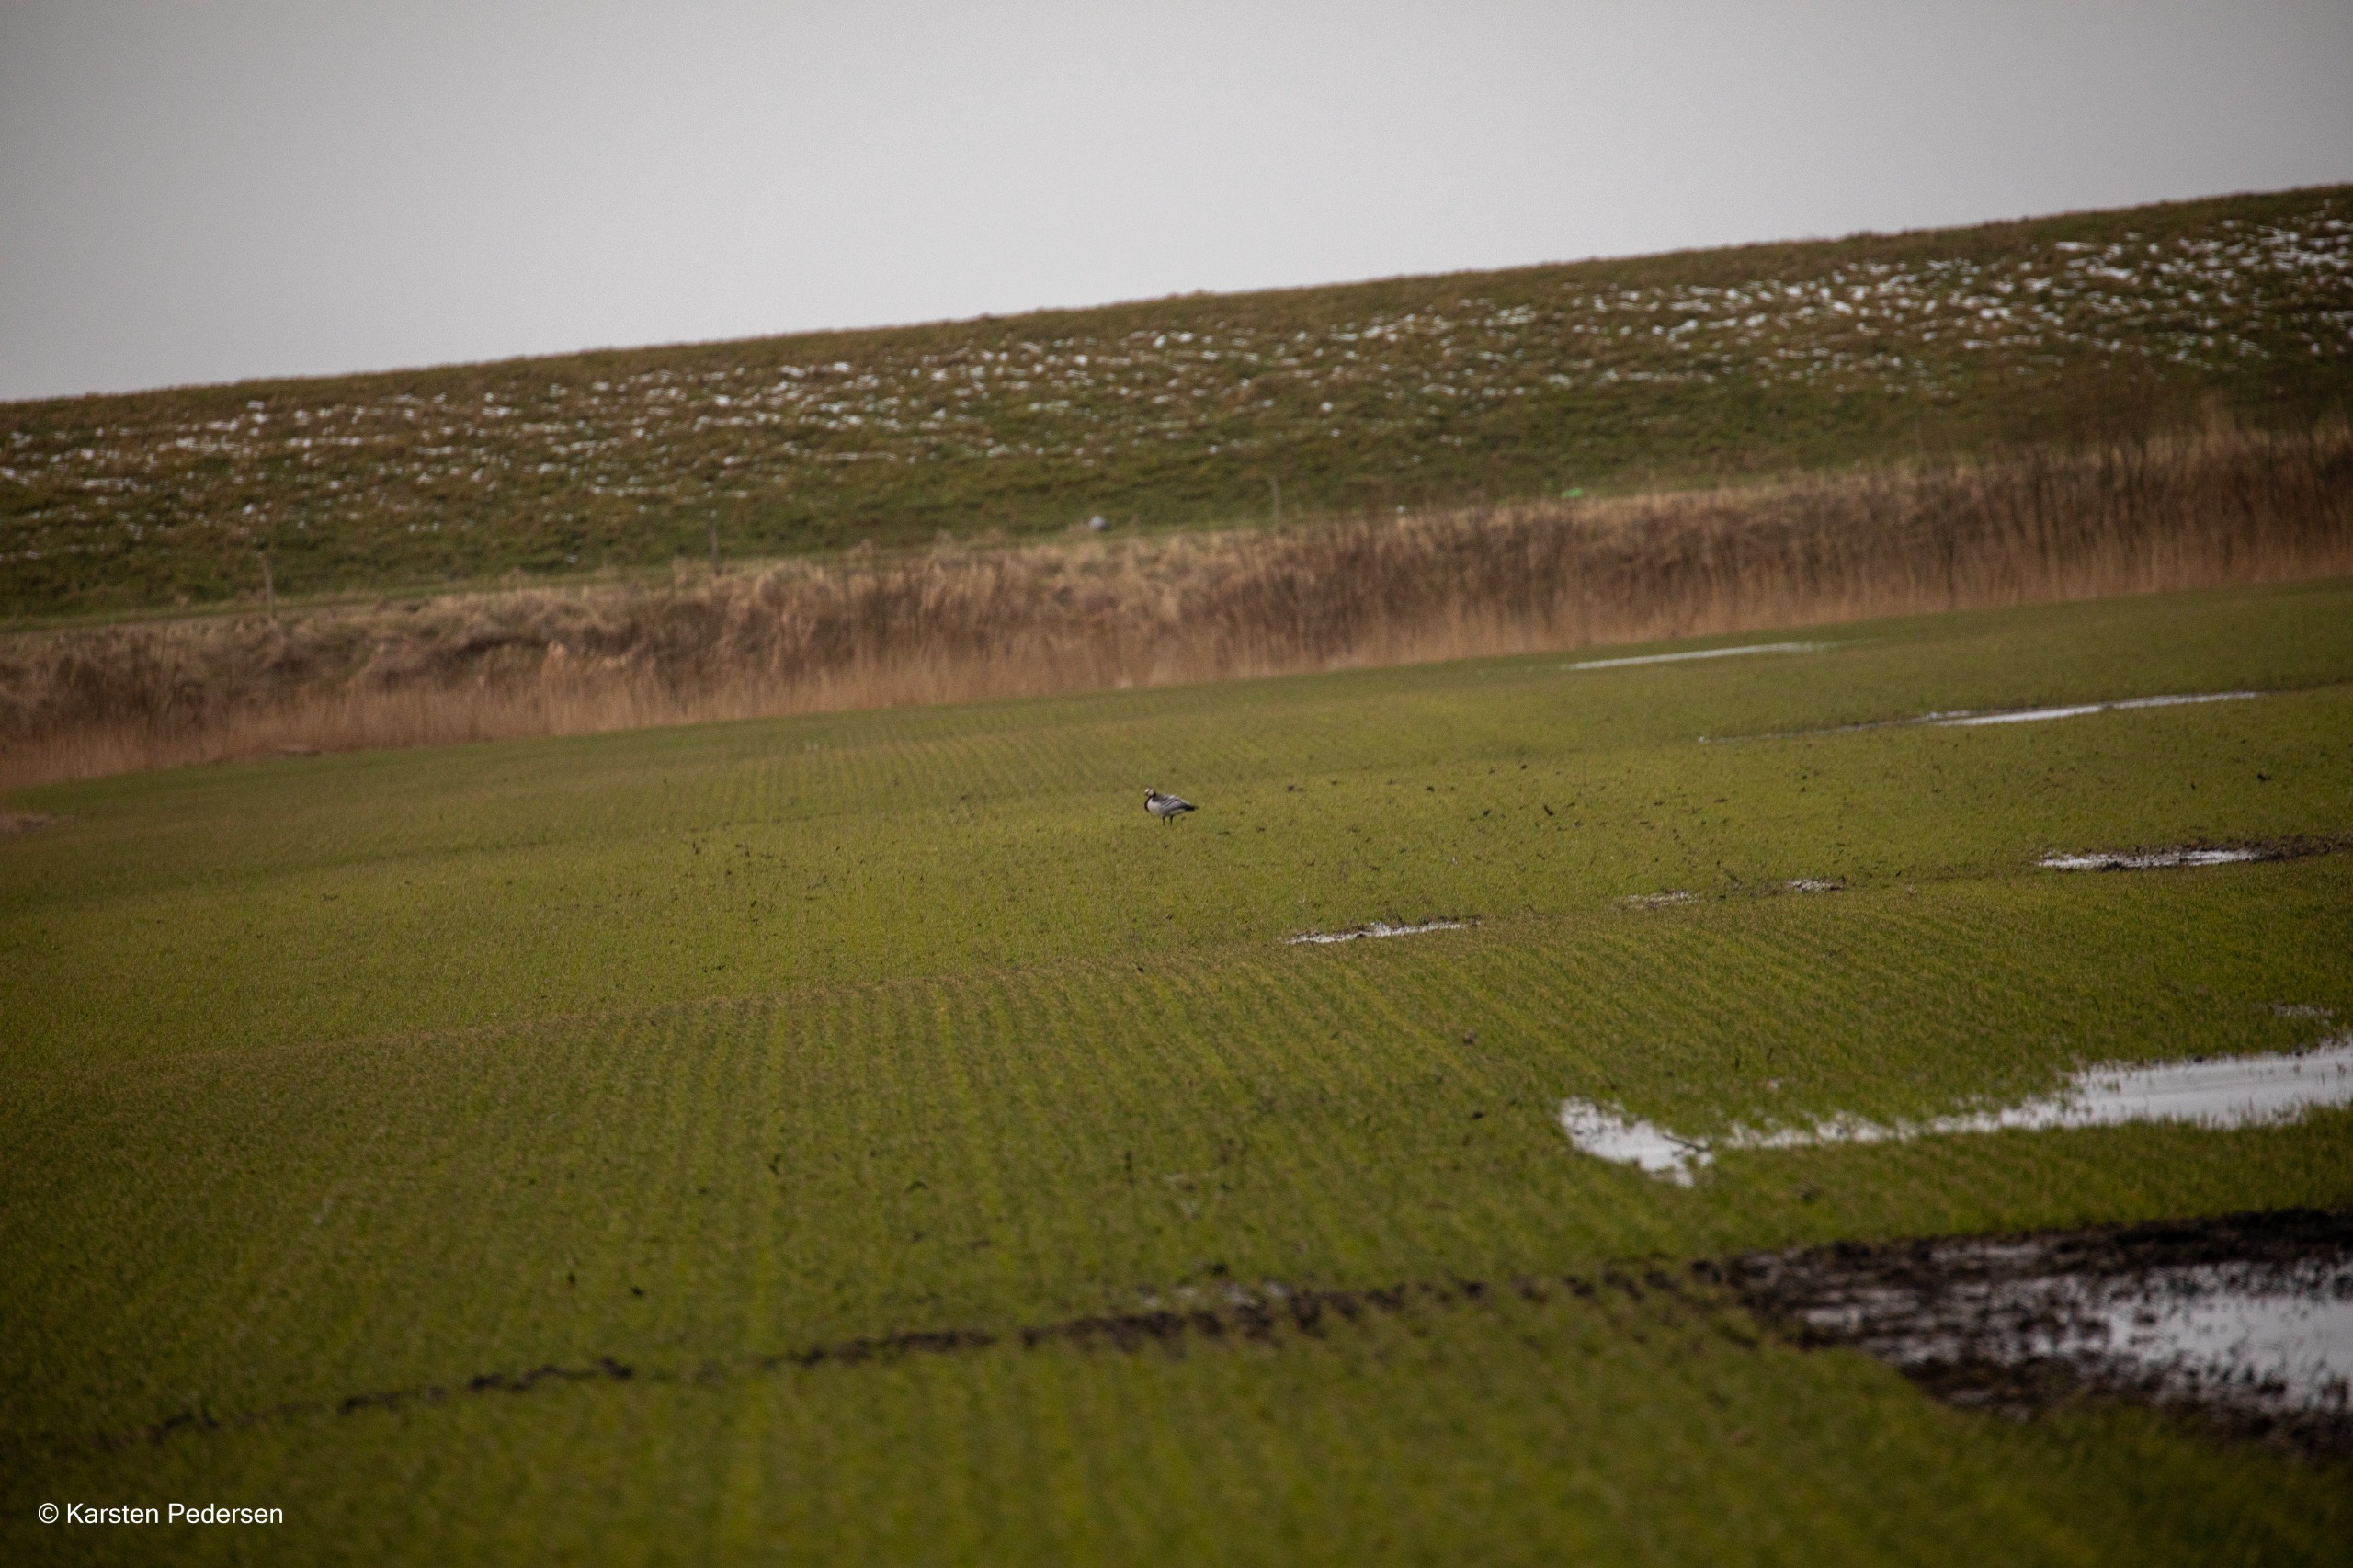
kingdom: Animalia
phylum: Chordata
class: Aves
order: Anseriformes
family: Anatidae
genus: Branta
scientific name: Branta leucopsis
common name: Bramgås
